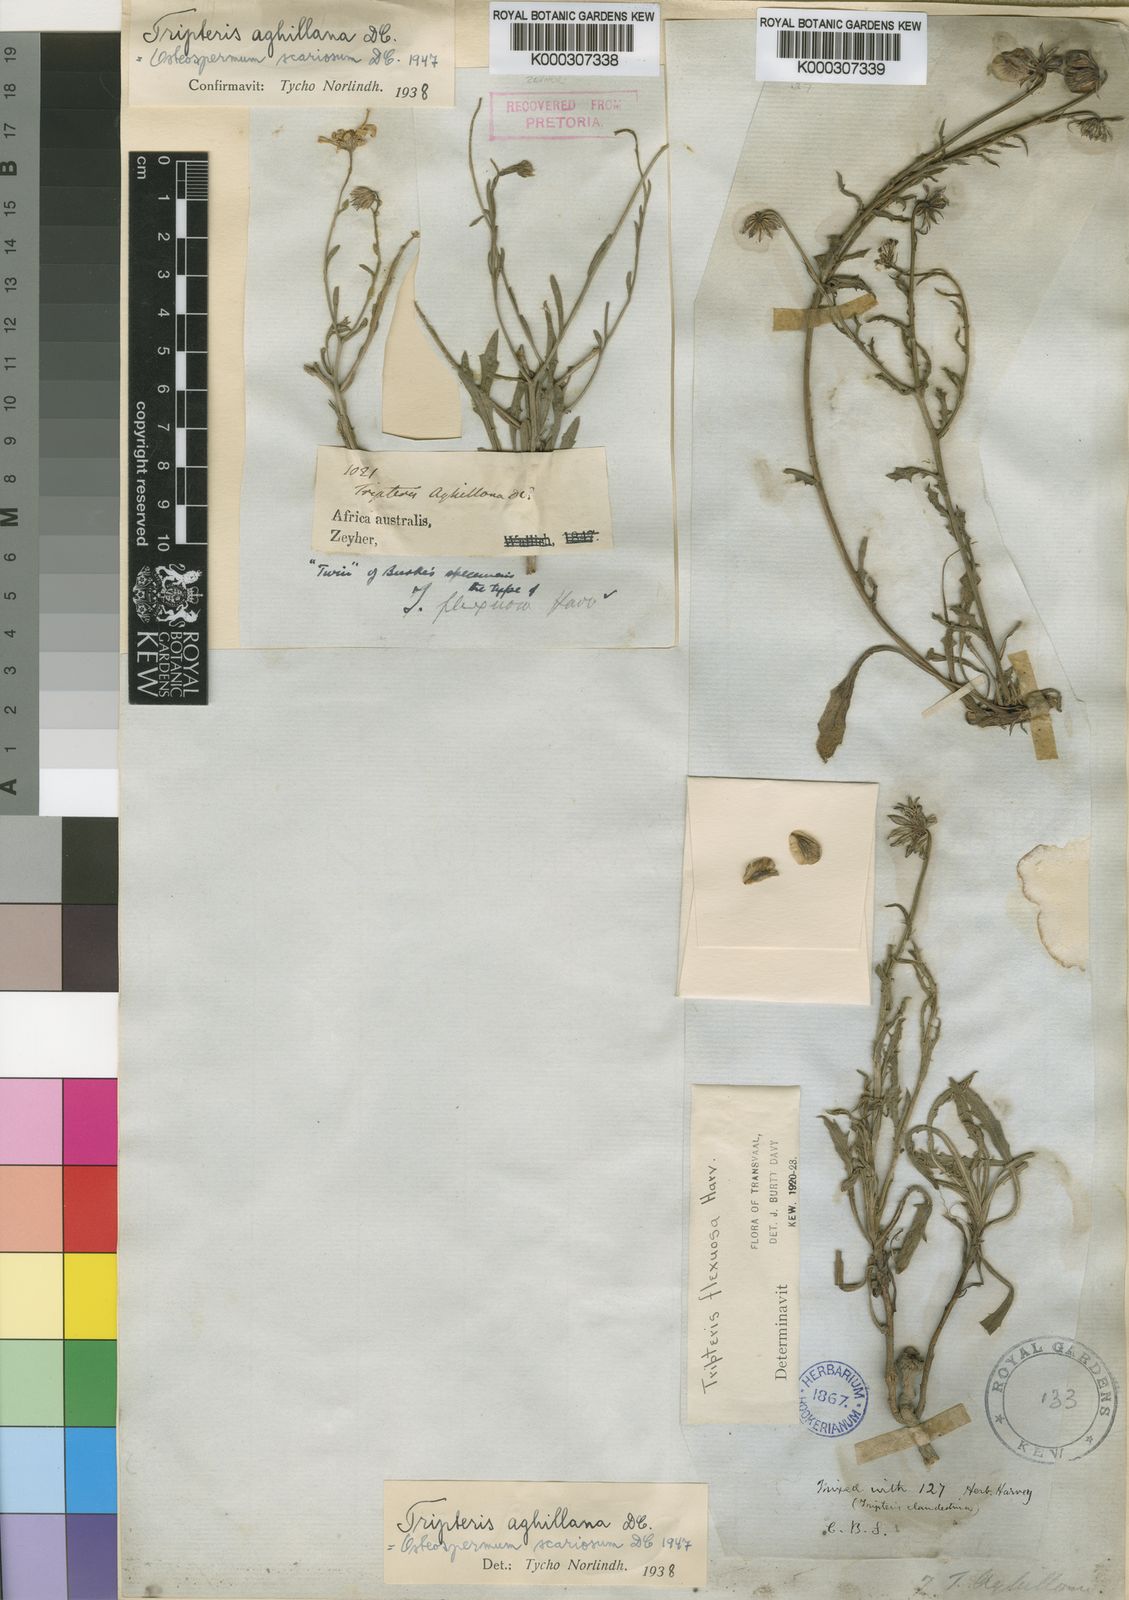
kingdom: Plantae
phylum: Tracheophyta
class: Magnoliopsida
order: Asterales
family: Asteraceae
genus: Osteospermum
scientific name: Osteospermum scariosum
